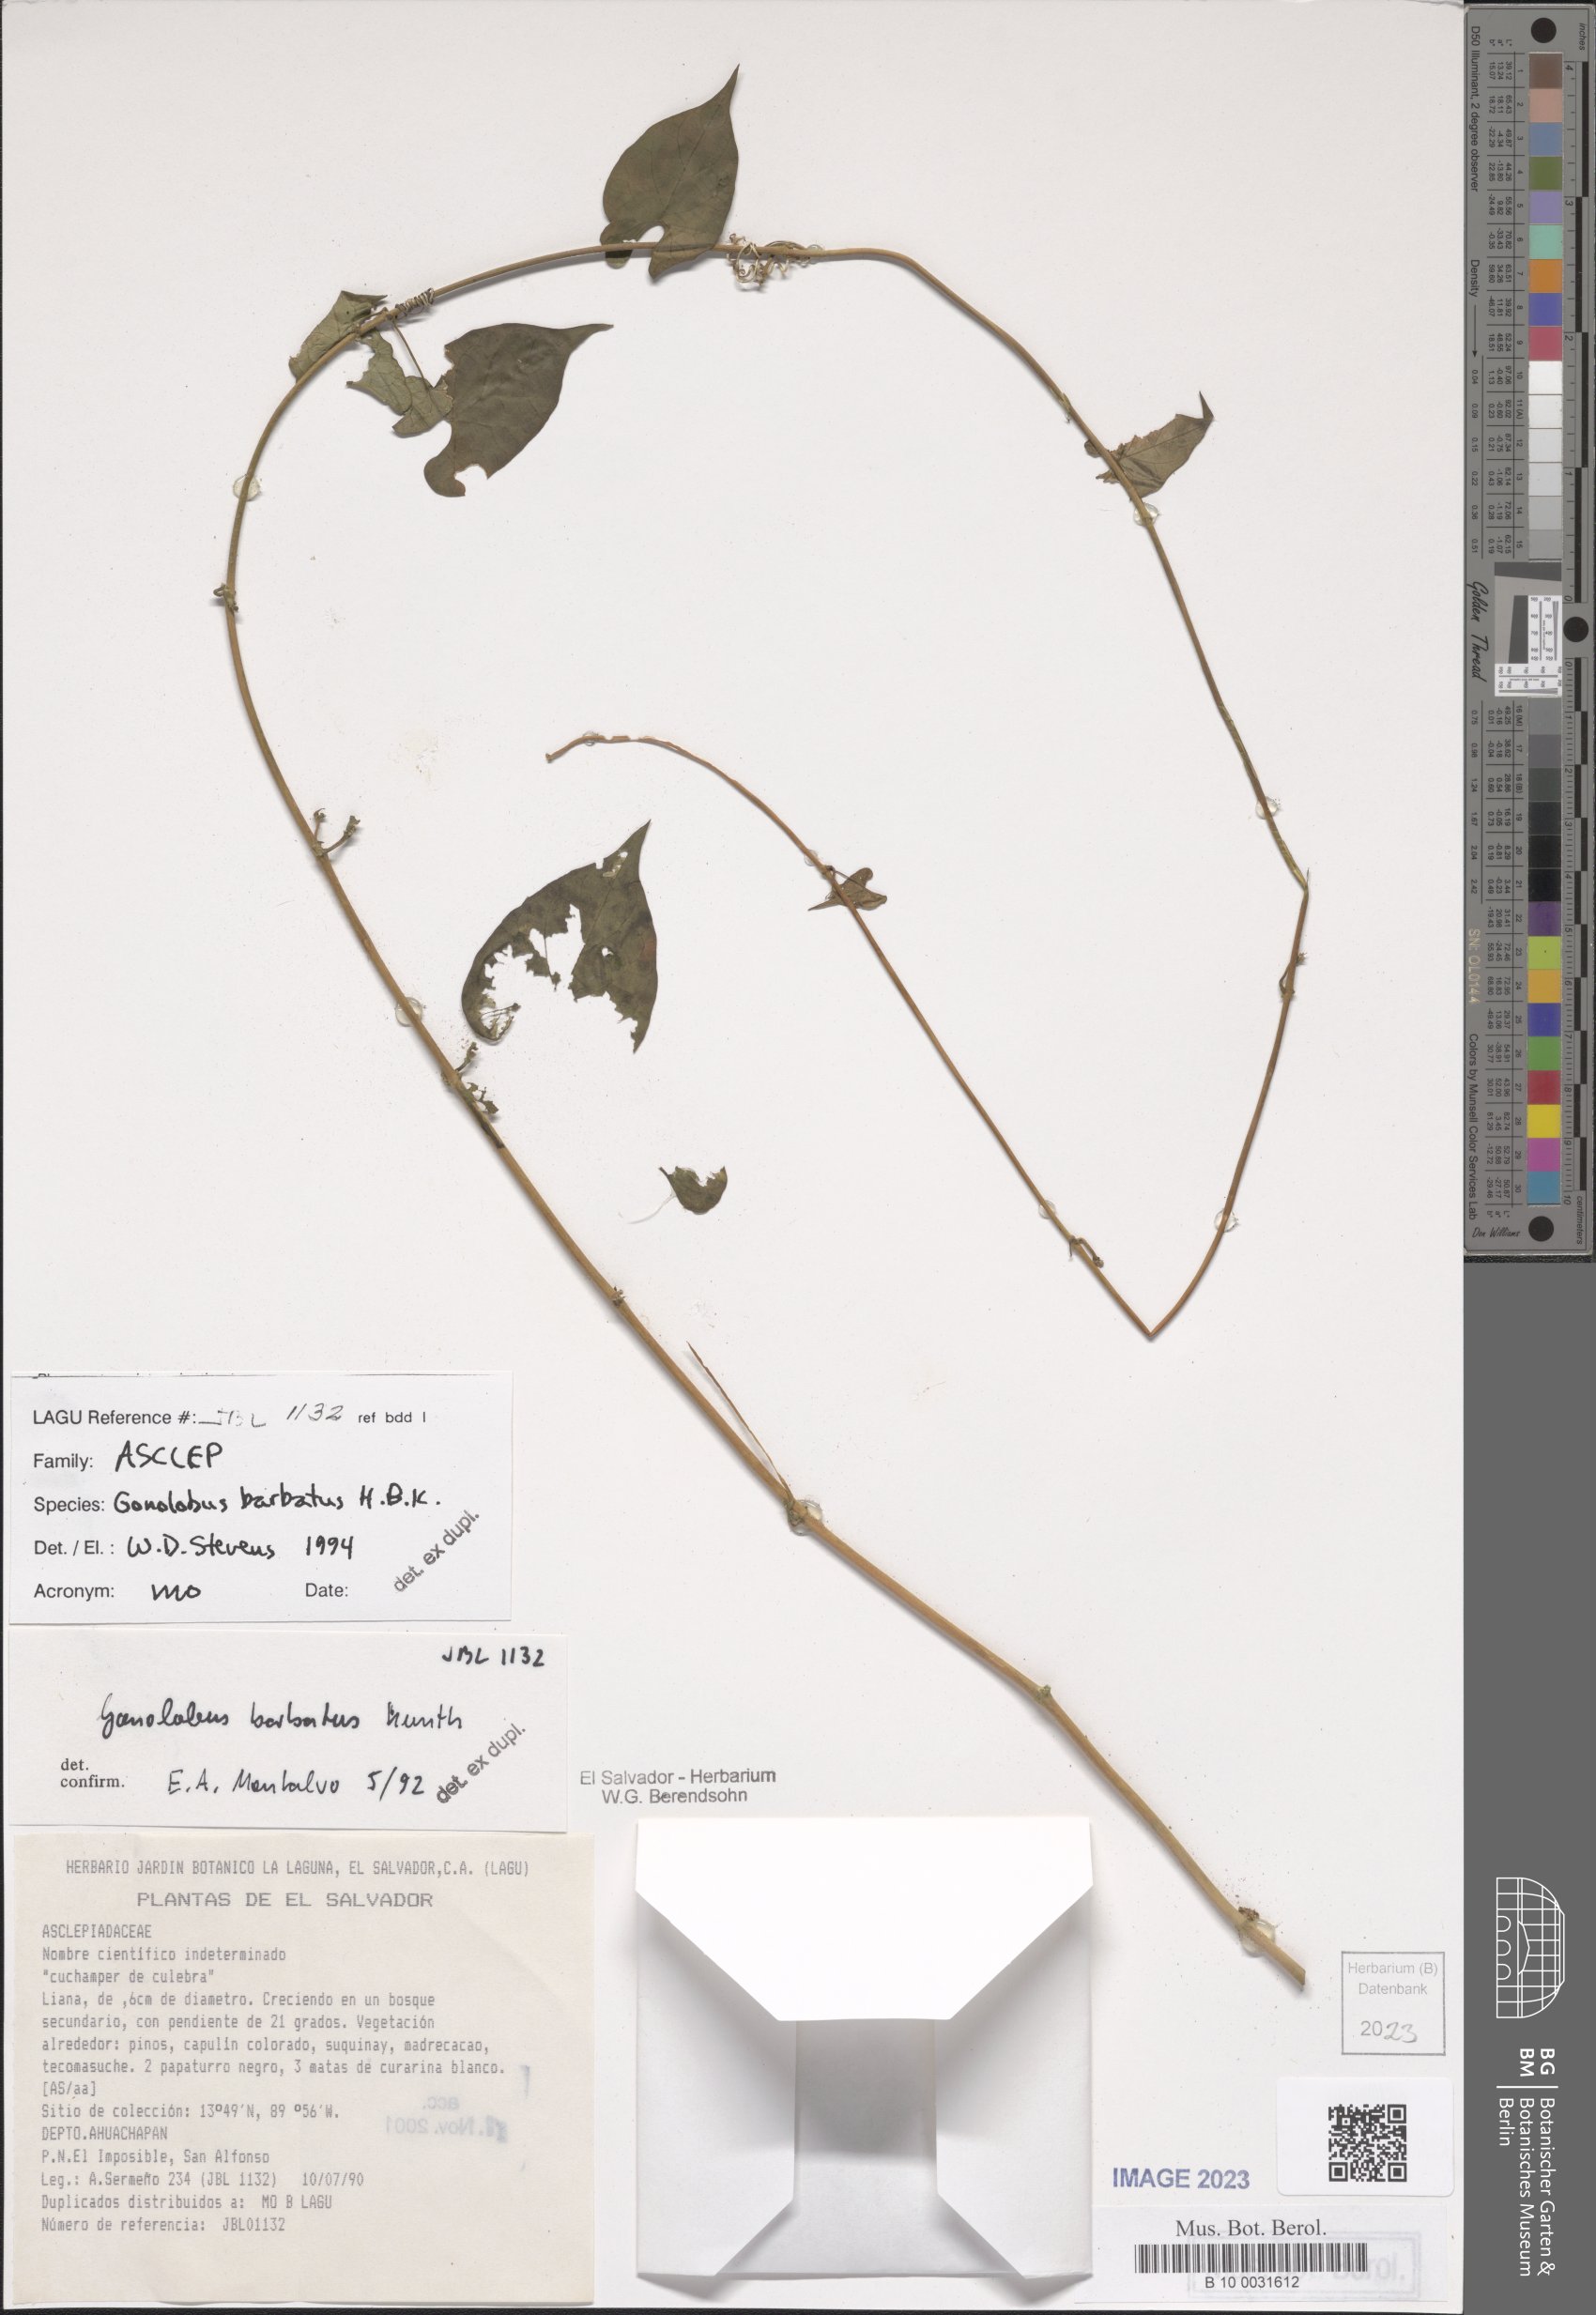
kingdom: Plantae
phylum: Tracheophyta
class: Magnoliopsida
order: Gentianales
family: Apocynaceae
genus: Gonolobus
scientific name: Gonolobus barbatus
